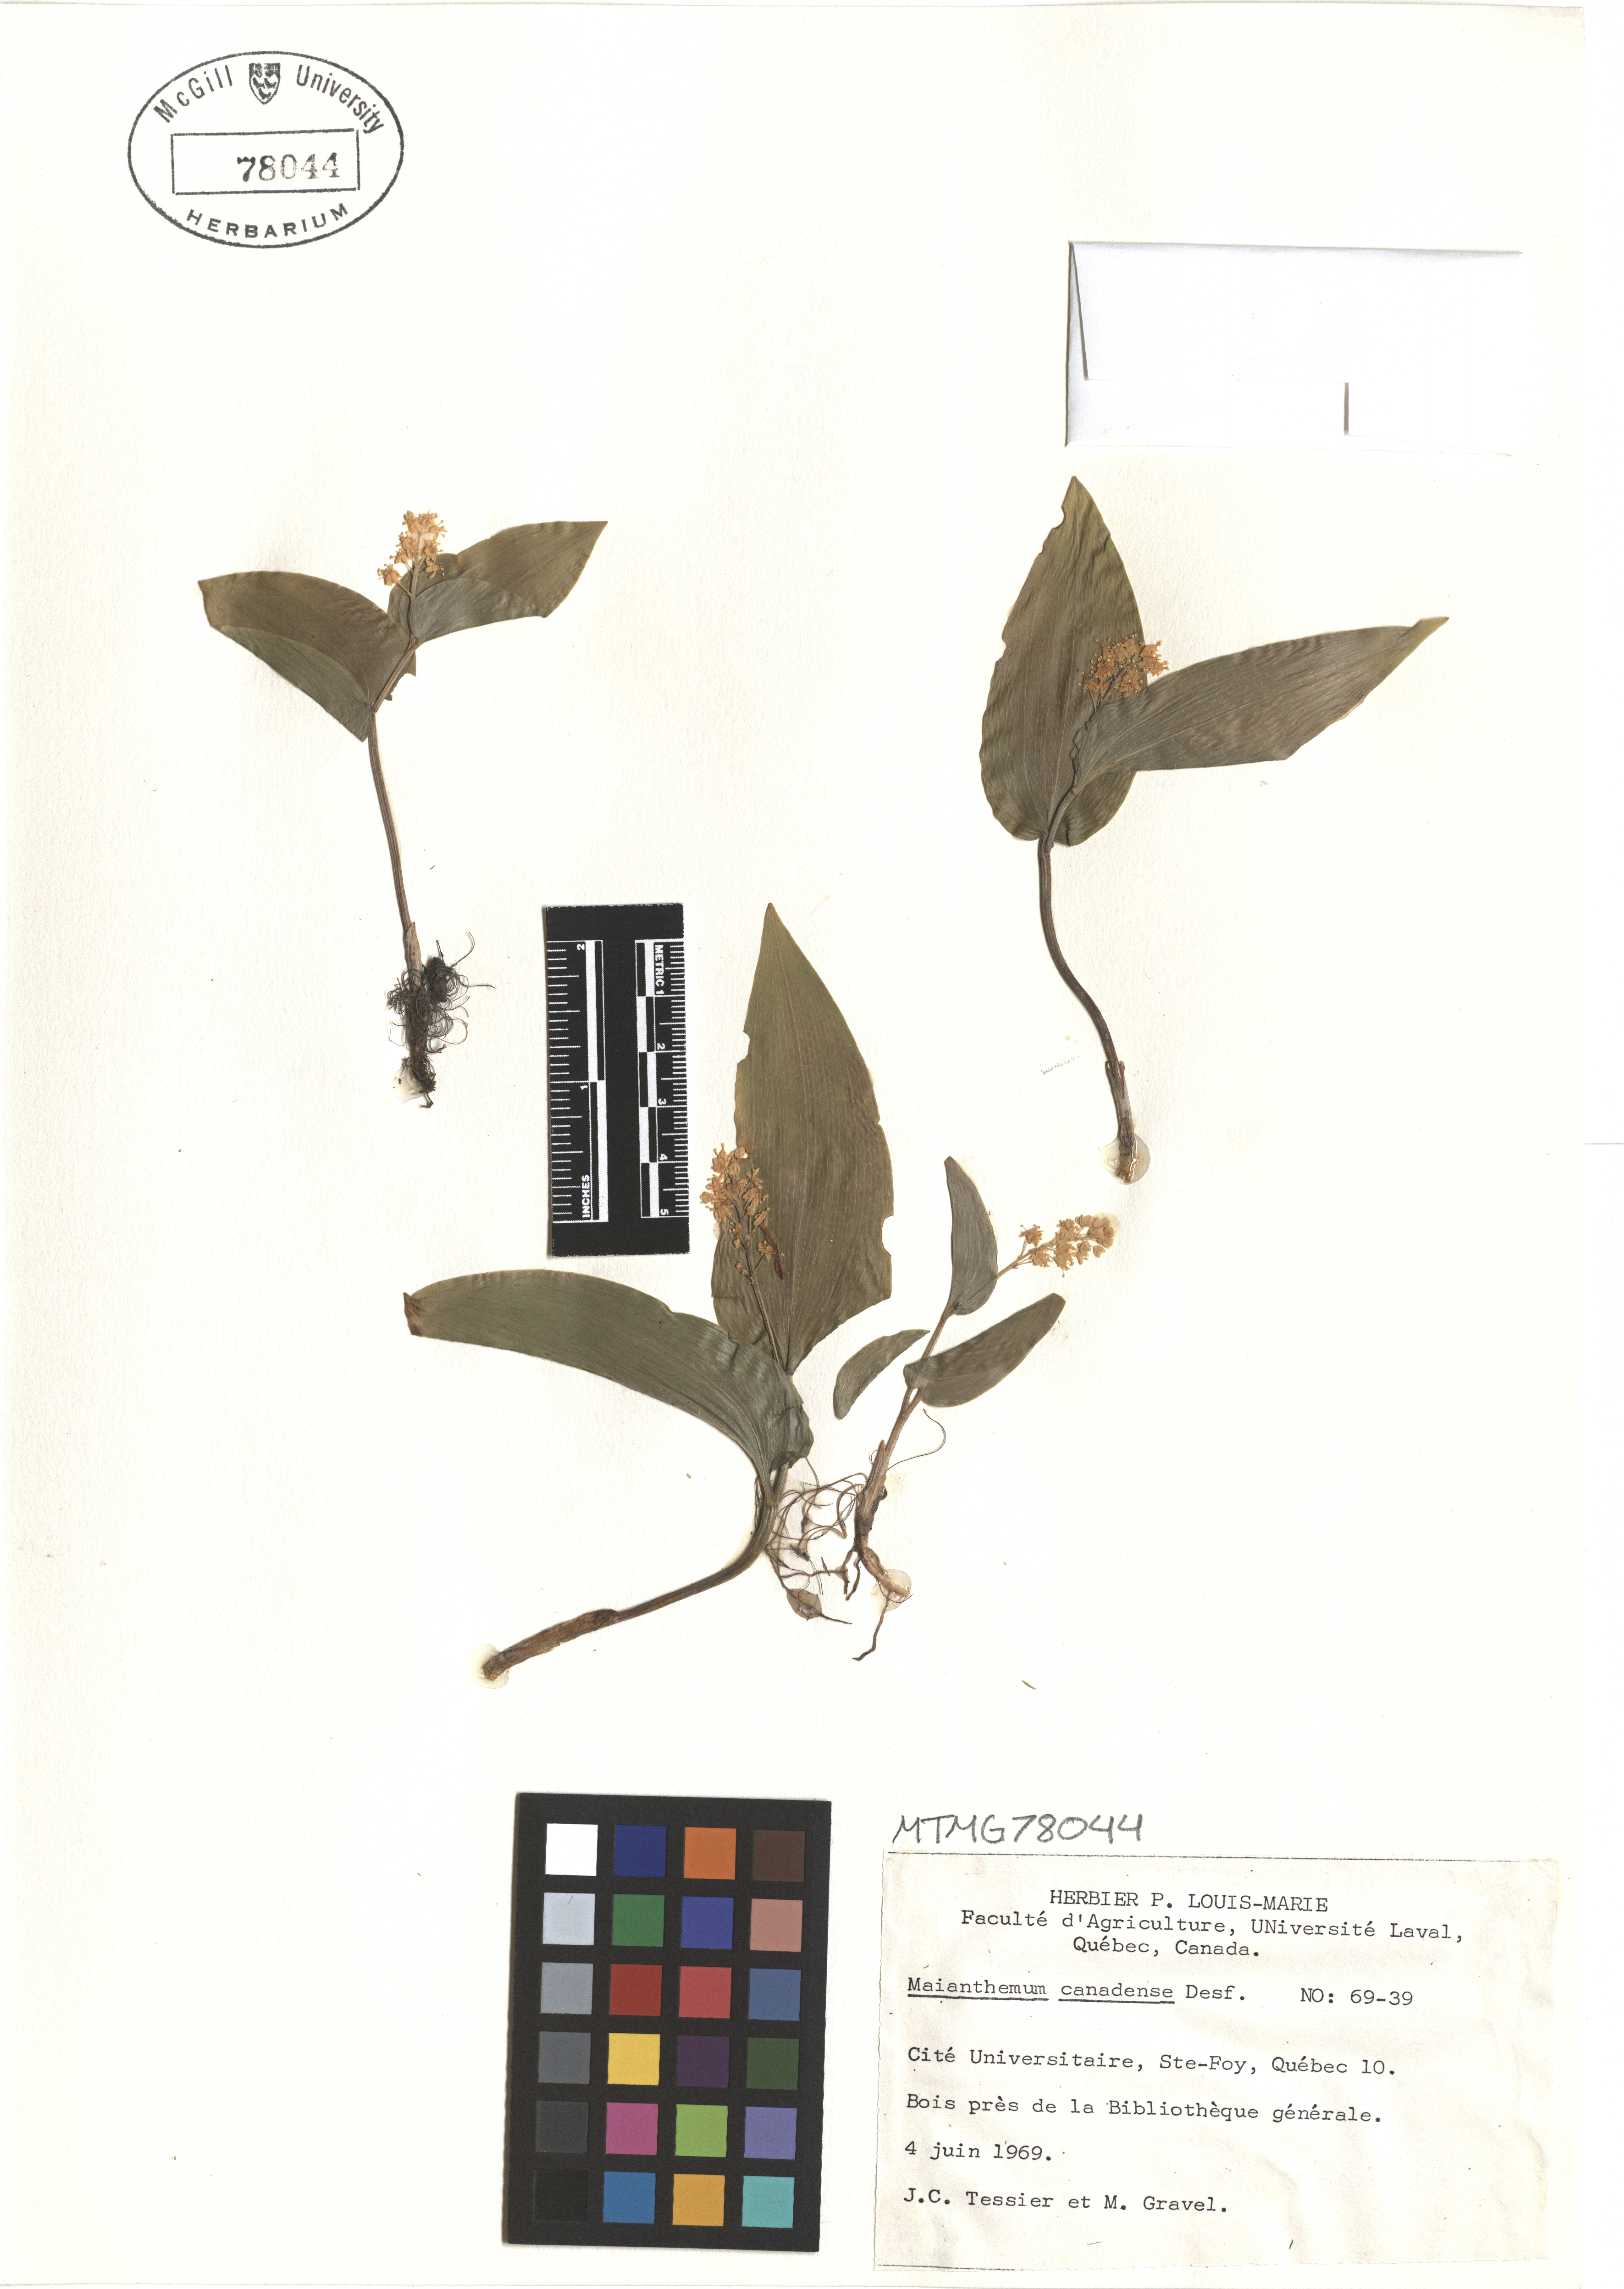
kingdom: Plantae
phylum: Tracheophyta
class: Liliopsida
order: Asparagales
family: Asparagaceae
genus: Maianthemum
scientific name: Maianthemum canadense
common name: False lily-of-the-valley
